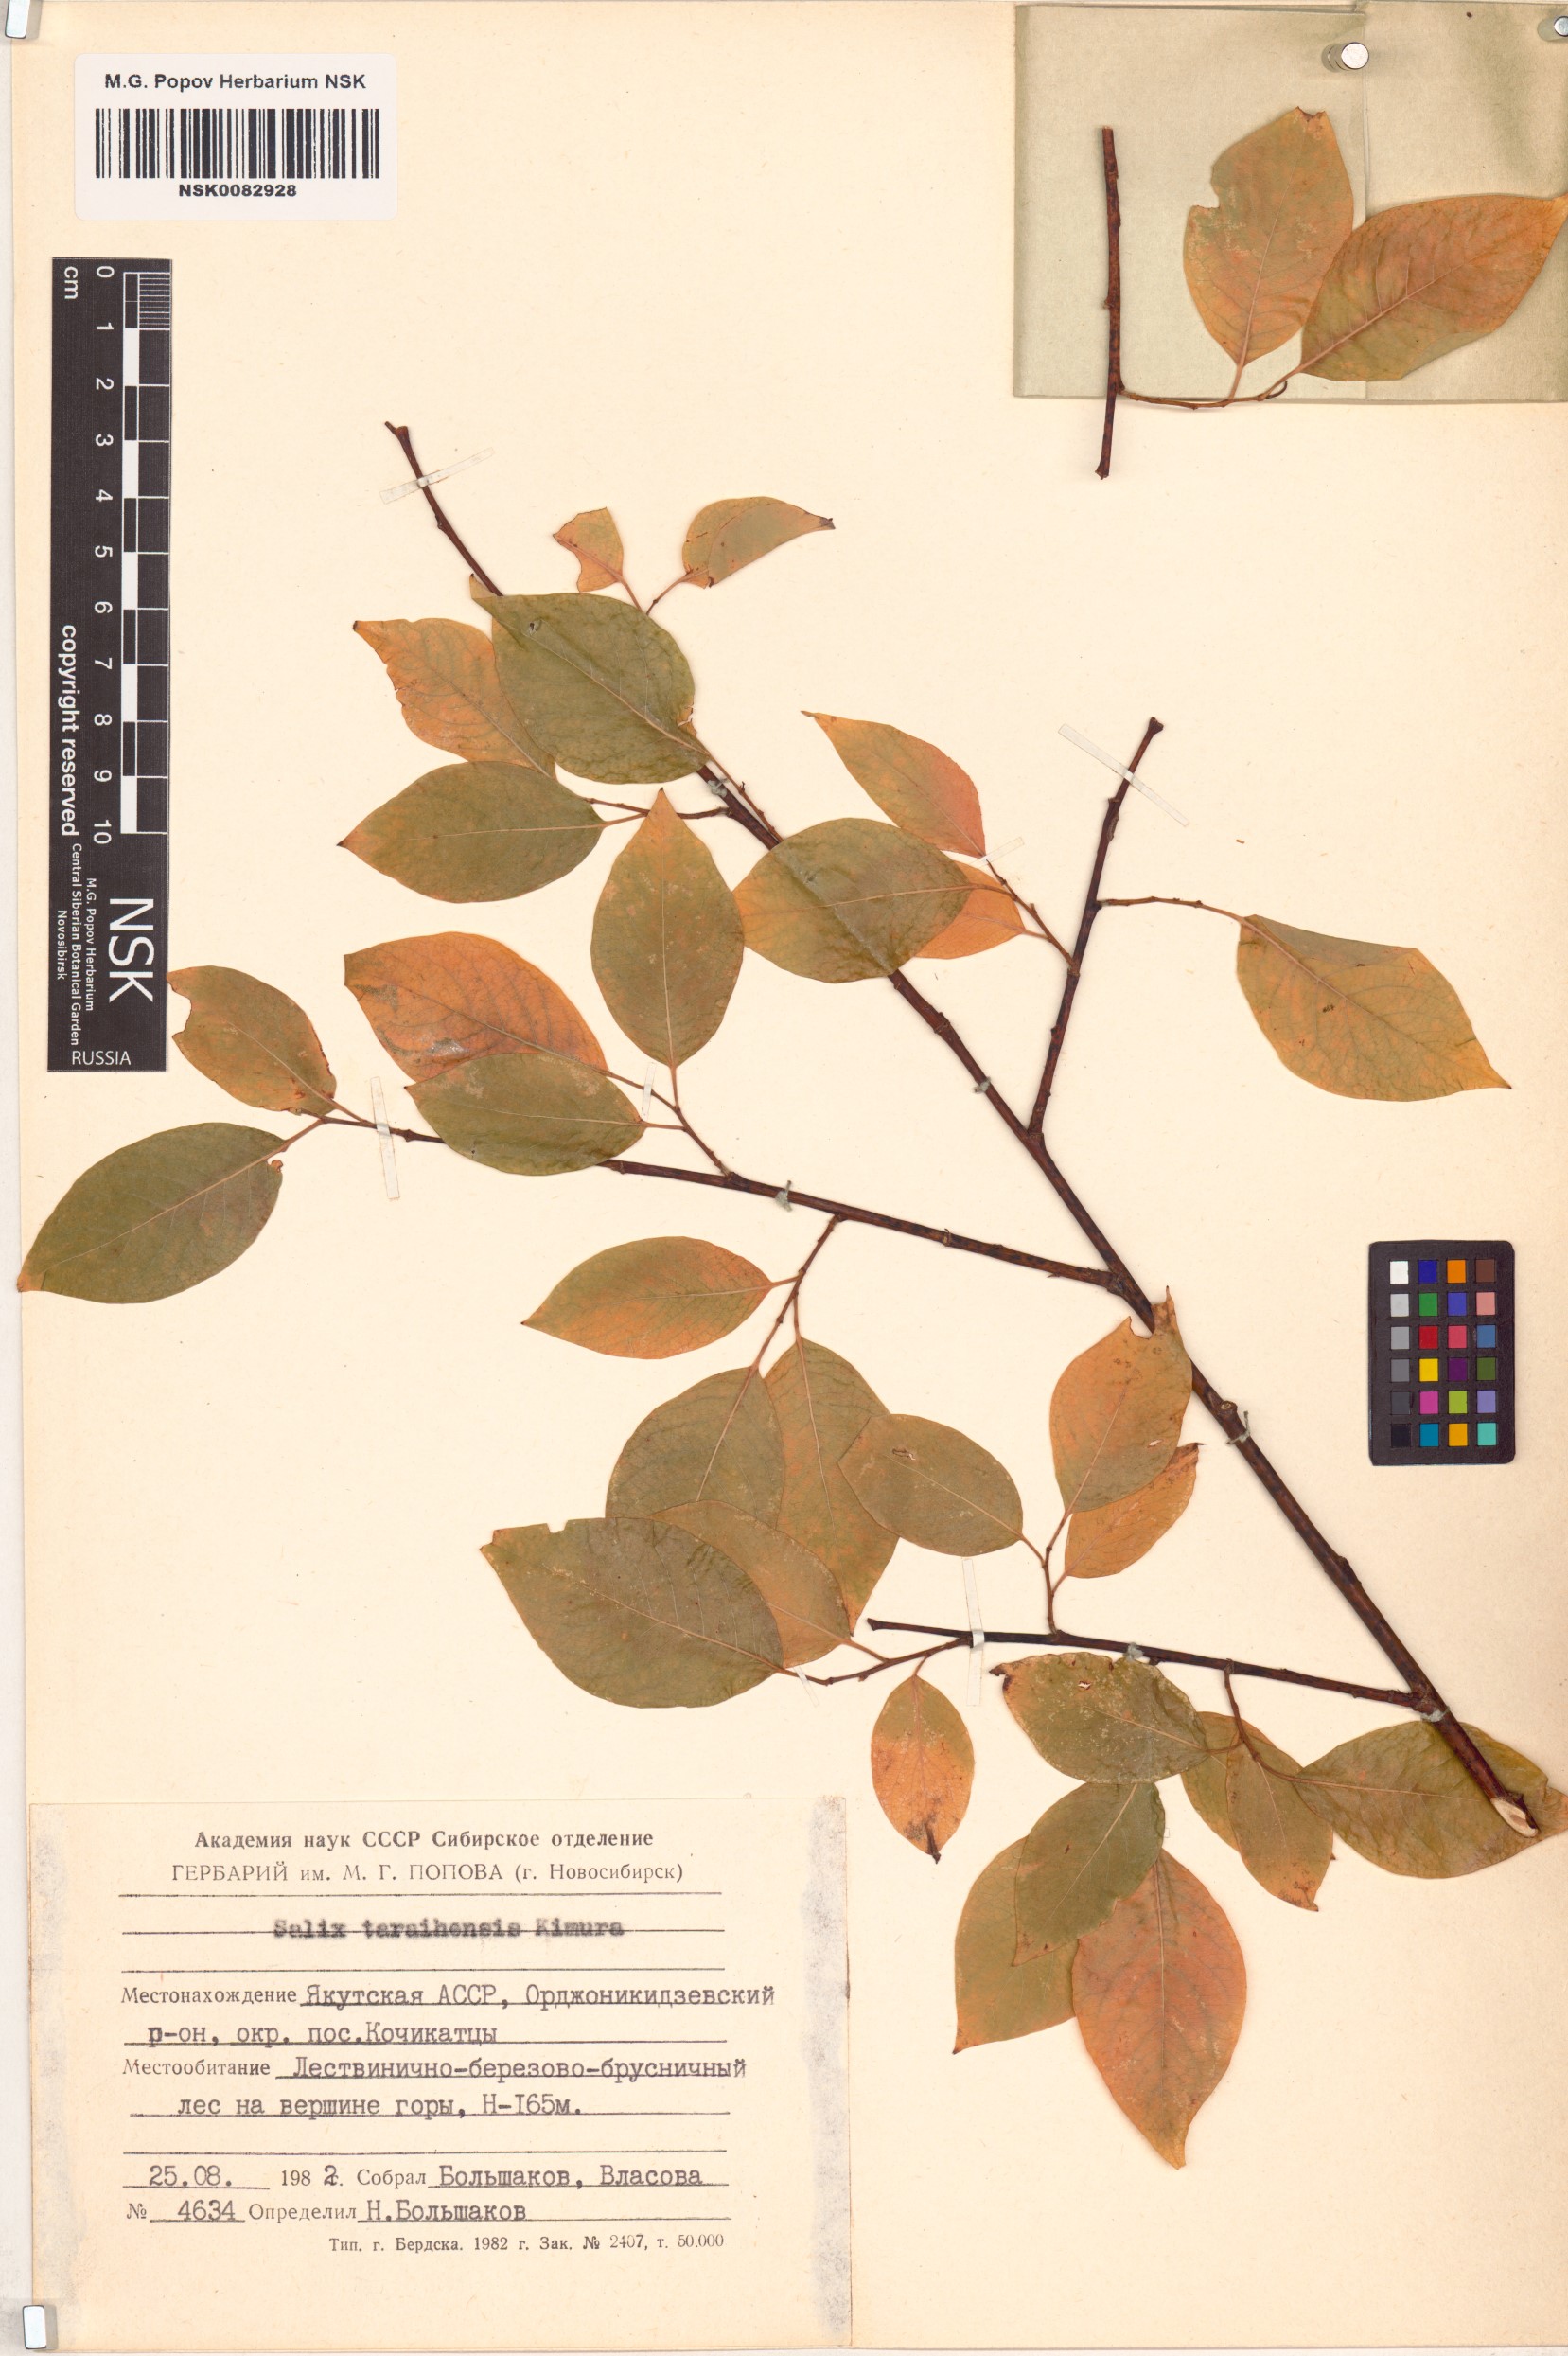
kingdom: Plantae
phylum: Tracheophyta
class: Magnoliopsida
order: Malpighiales
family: Salicaceae
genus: Salix
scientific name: Salix taraikensis
